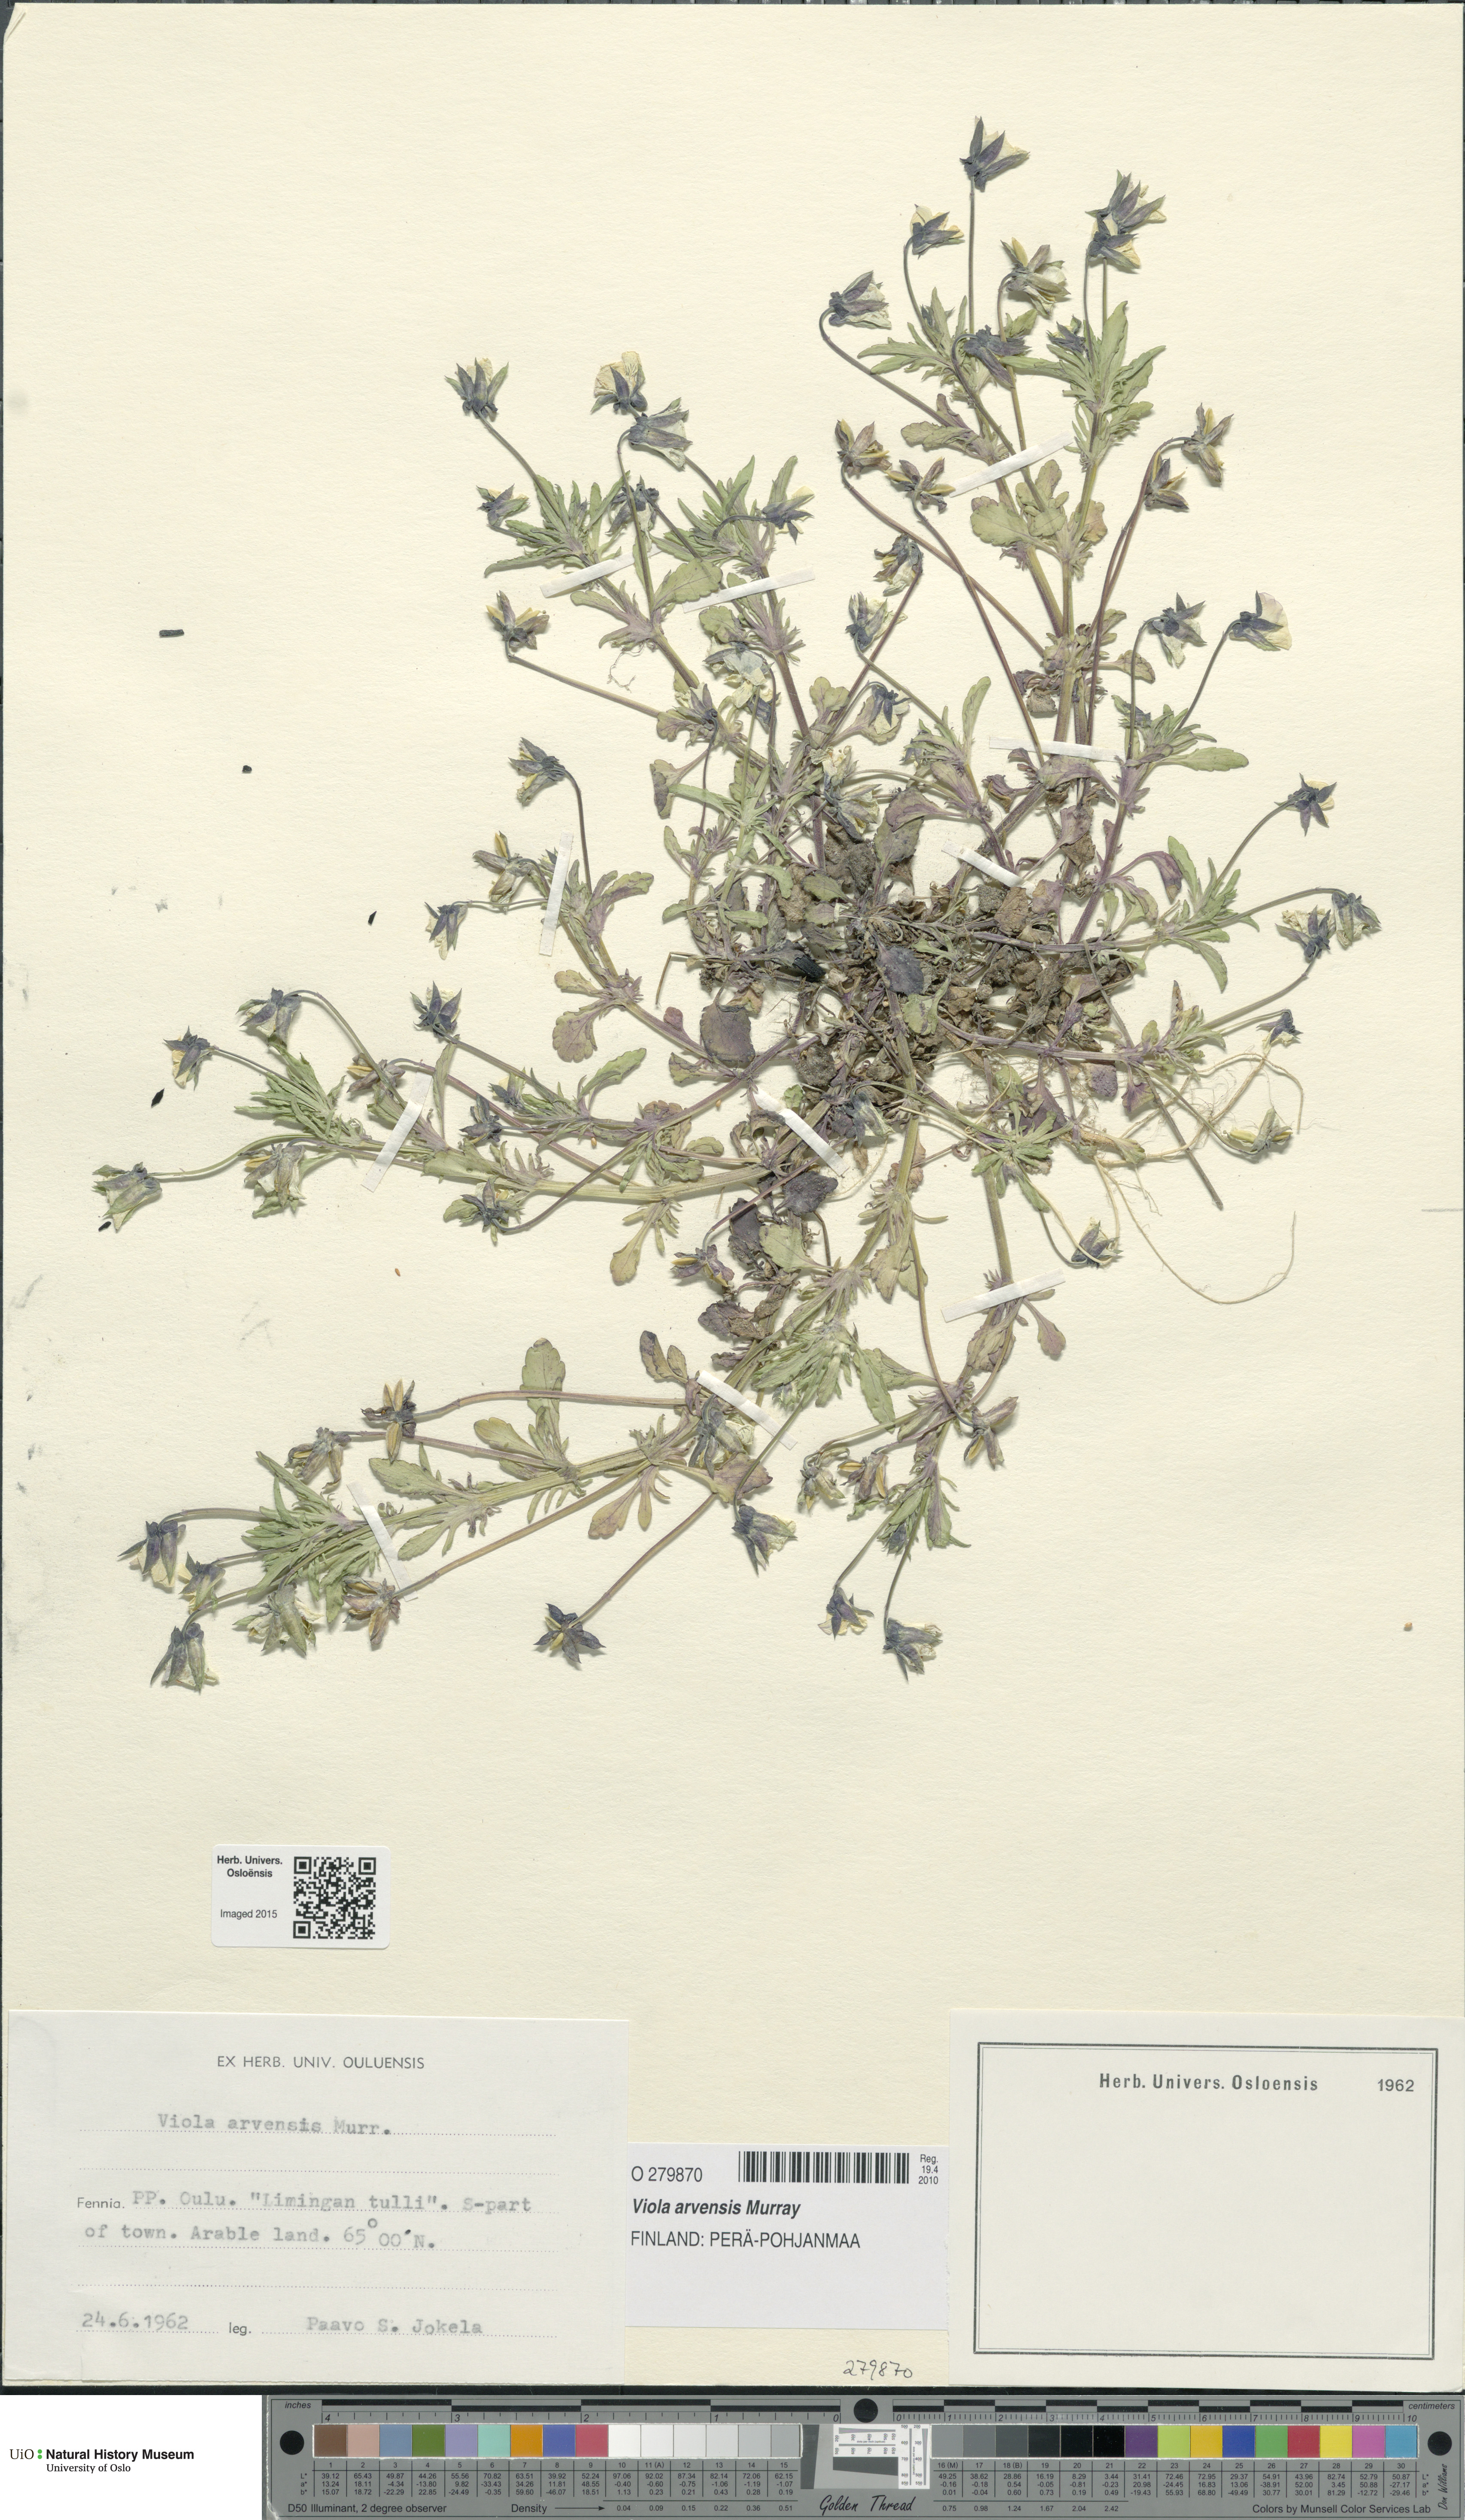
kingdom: Plantae
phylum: Tracheophyta
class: Magnoliopsida
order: Malpighiales
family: Violaceae
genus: Viola
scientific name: Viola arvensis
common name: Field pansy
